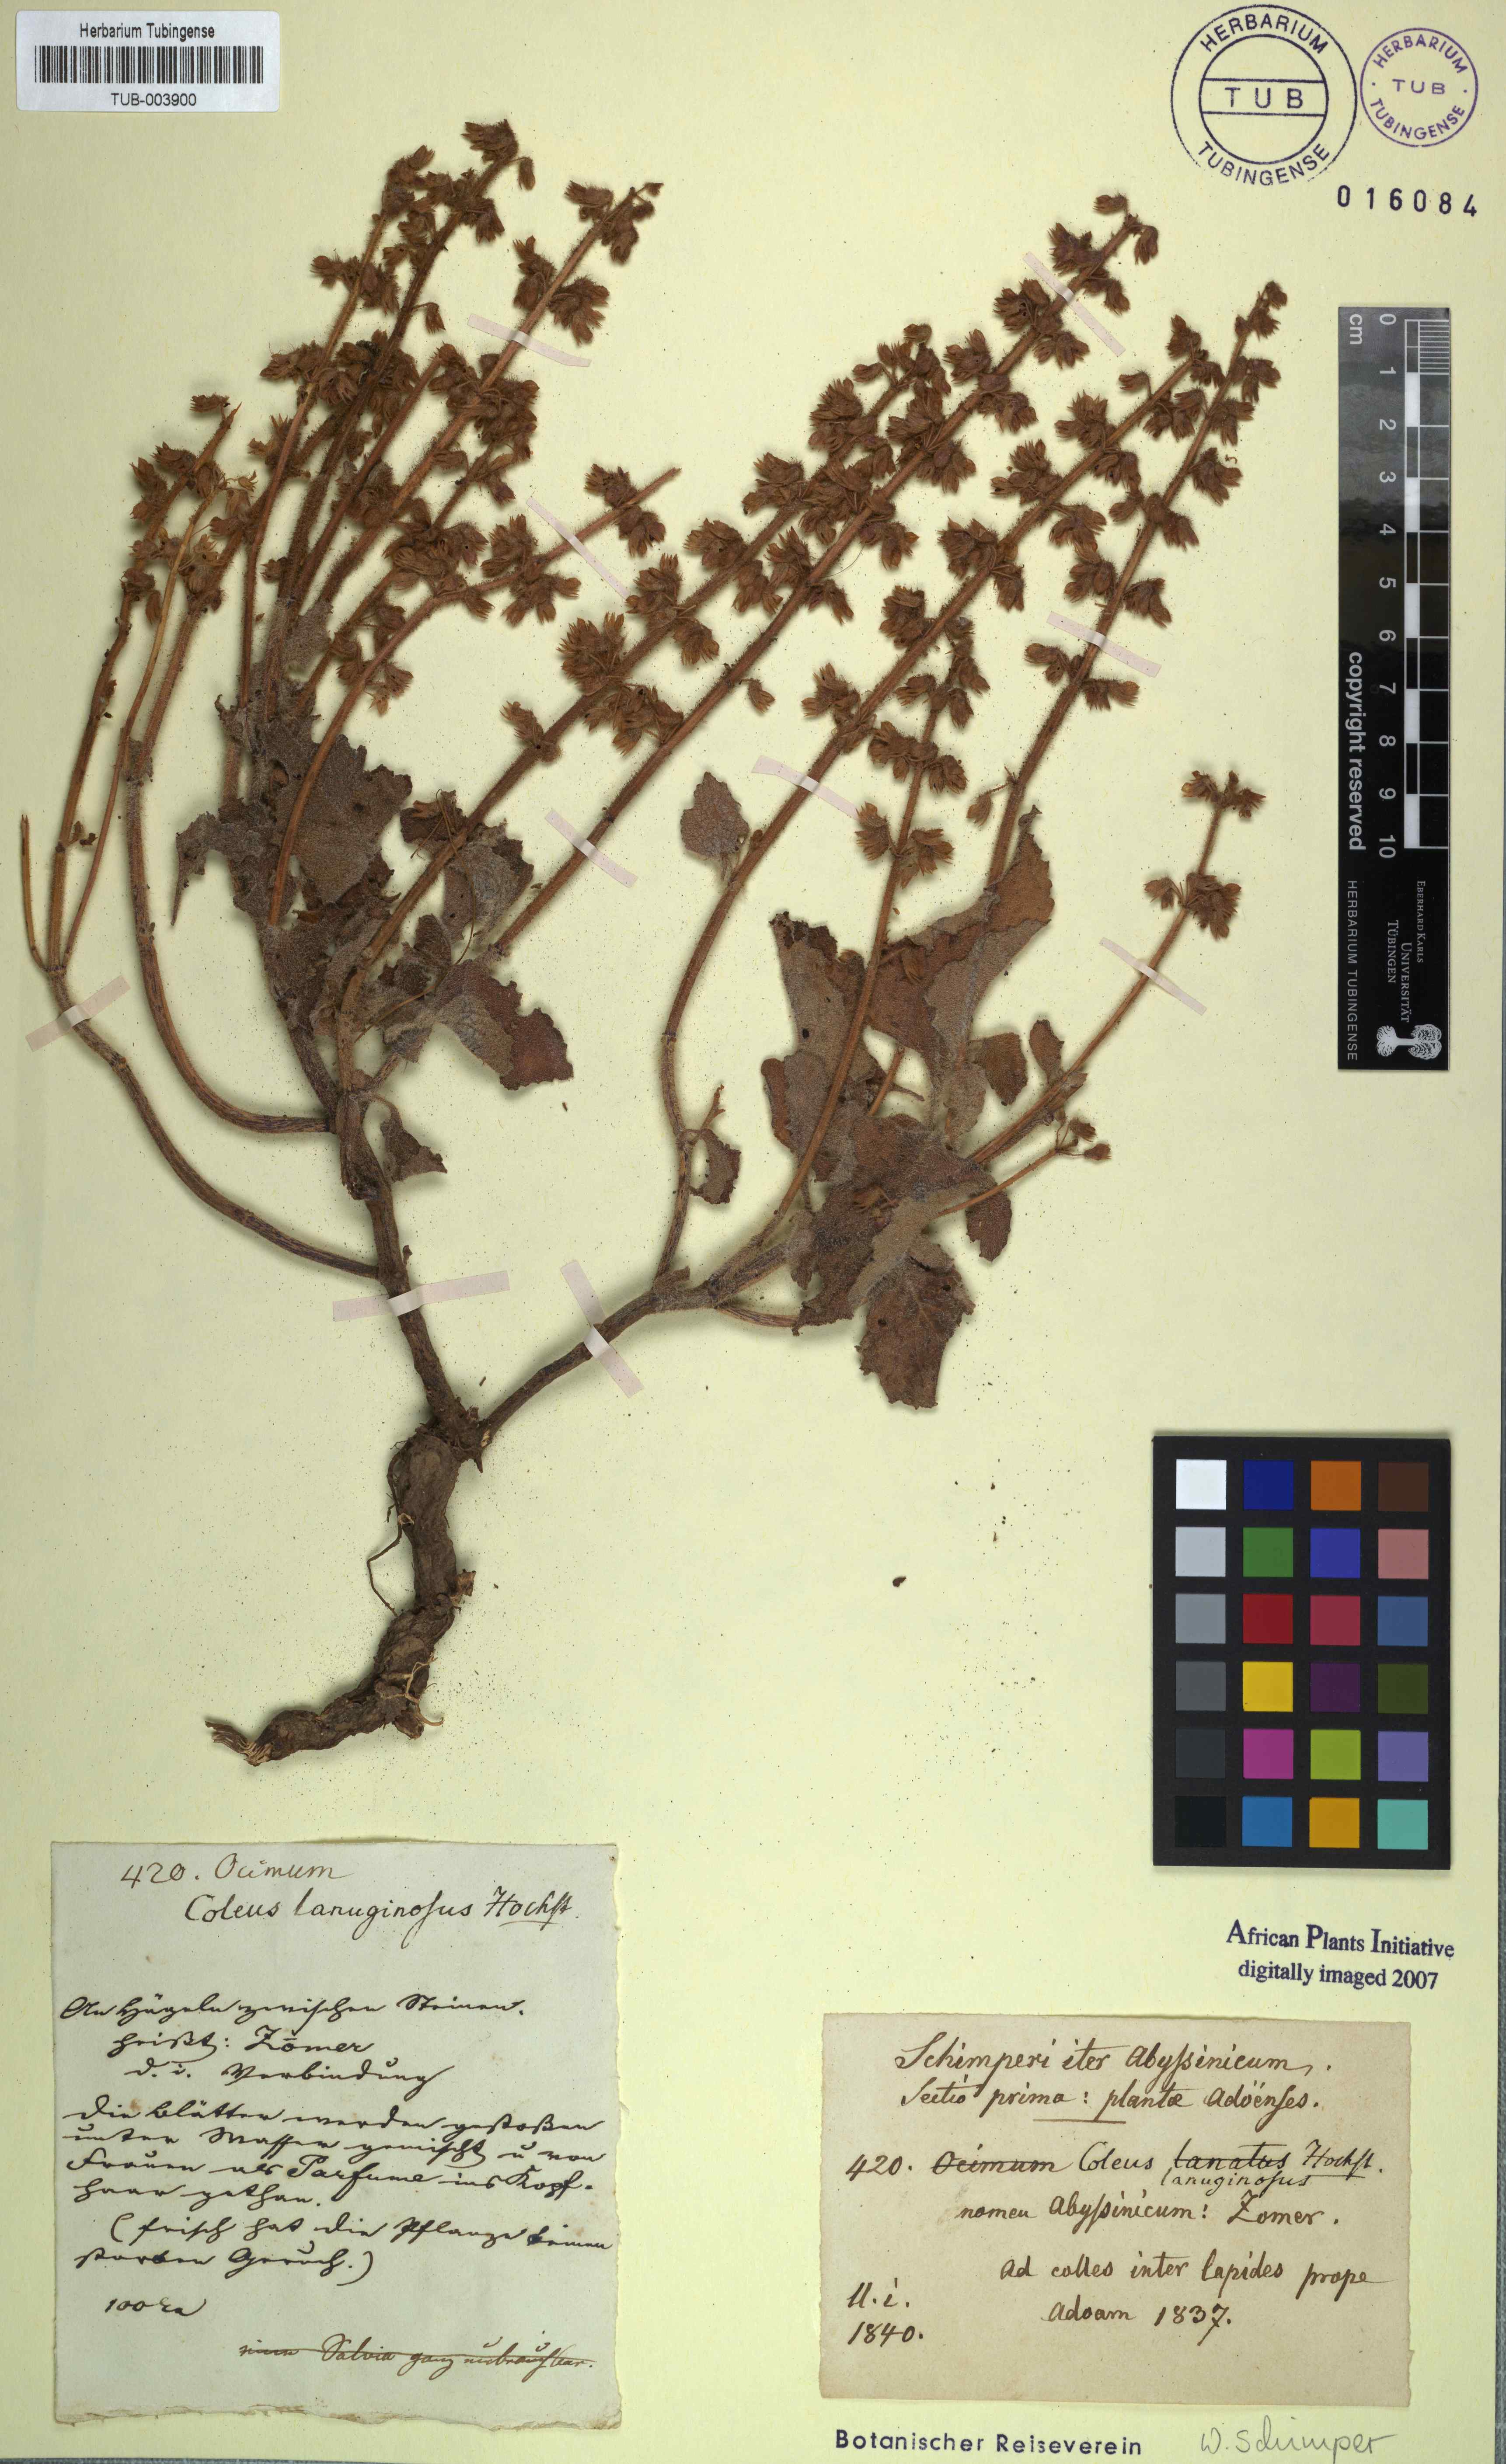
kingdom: Plantae
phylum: Tracheophyta
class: Magnoliopsida
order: Lamiales
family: Lamiaceae
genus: Coleus
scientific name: Coleus lanuginosus
